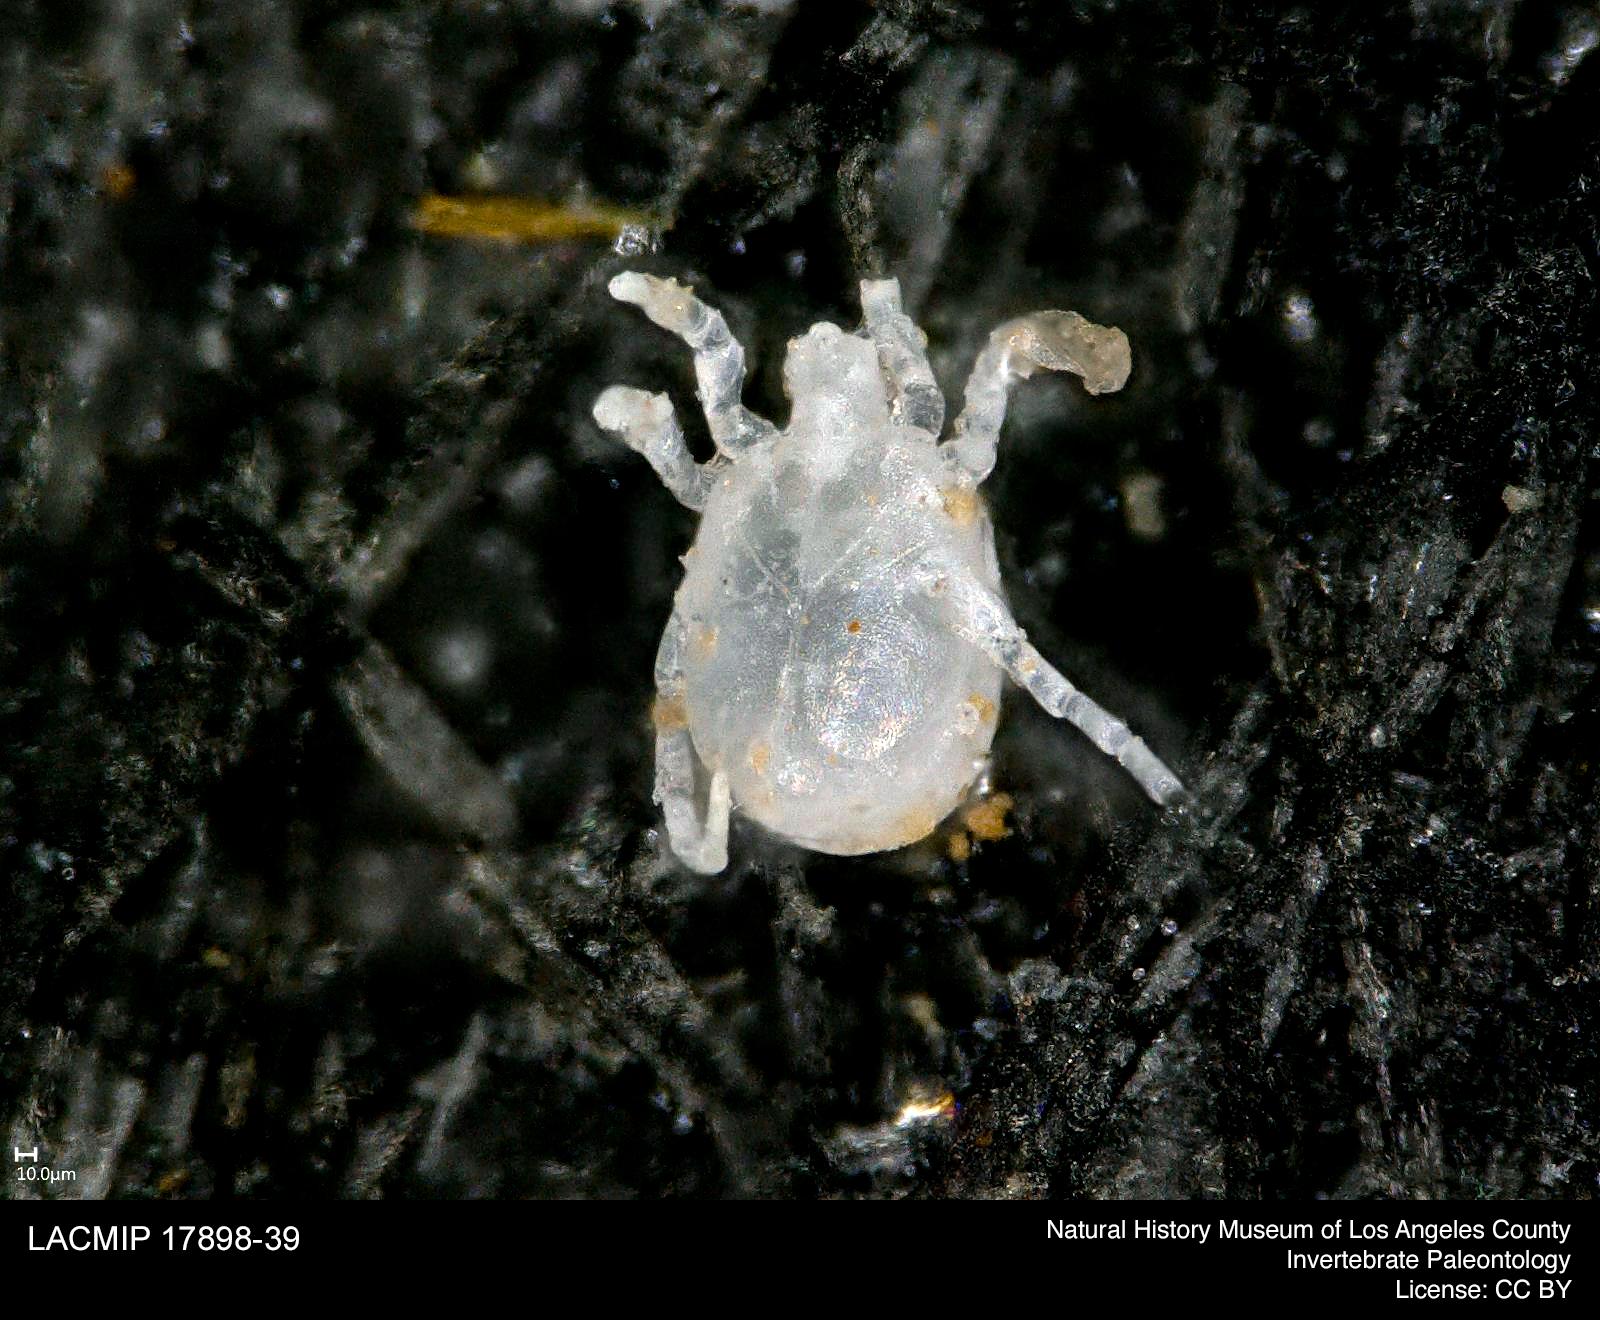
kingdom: Animalia
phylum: Arthropoda
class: Arachnida
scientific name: Arachnida
